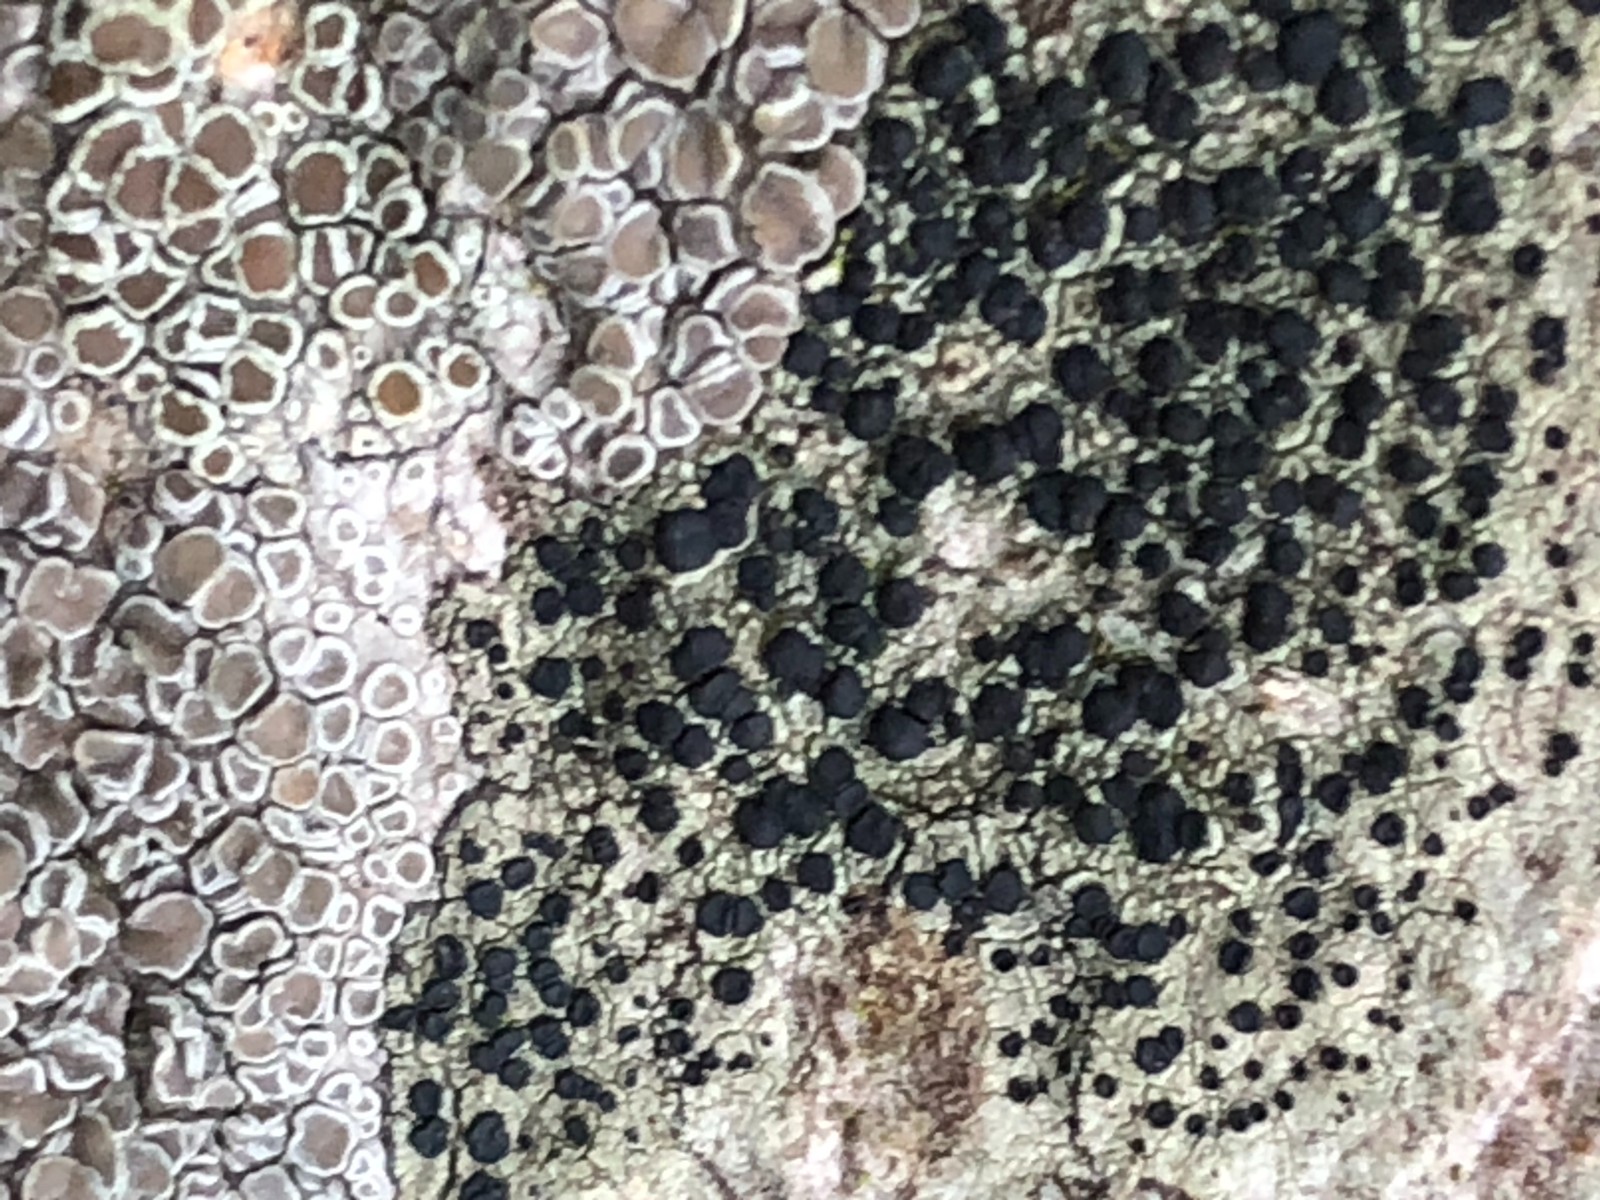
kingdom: Fungi
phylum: Ascomycota
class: Lecanoromycetes
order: Lecanorales
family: Lecanoraceae
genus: Lecanora
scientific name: Lecanora chlarotera
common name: brun kantskivelav
